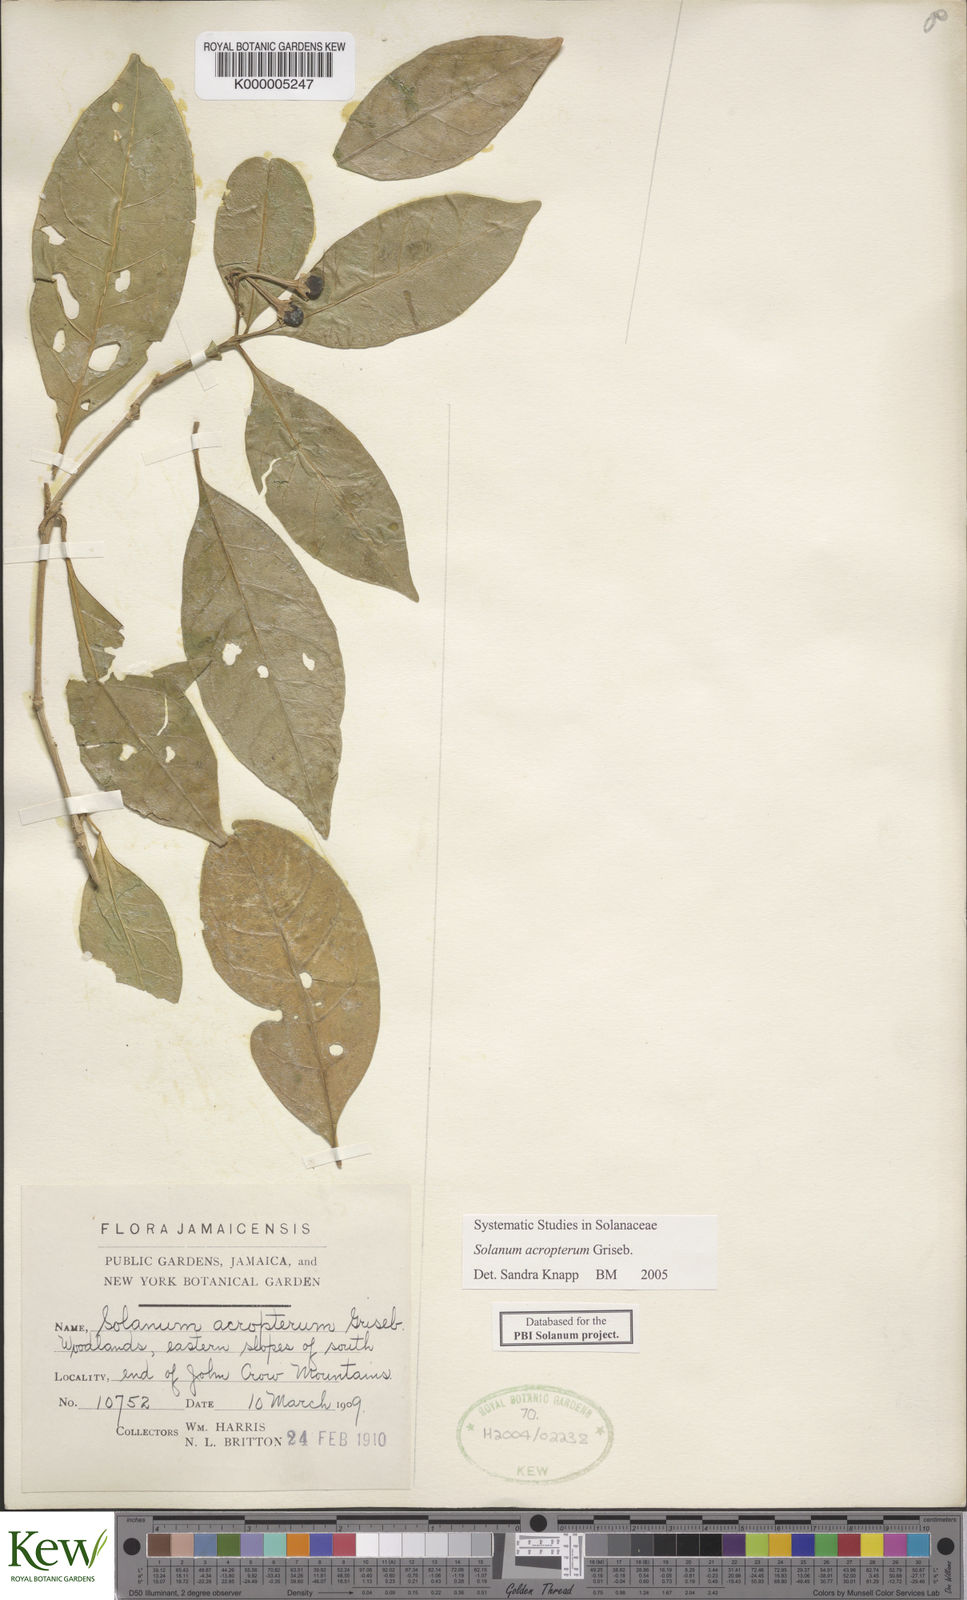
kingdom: Plantae
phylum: Tracheophyta
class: Magnoliopsida
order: Solanales
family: Solanaceae
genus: Solanum
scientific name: Solanum acropterum
